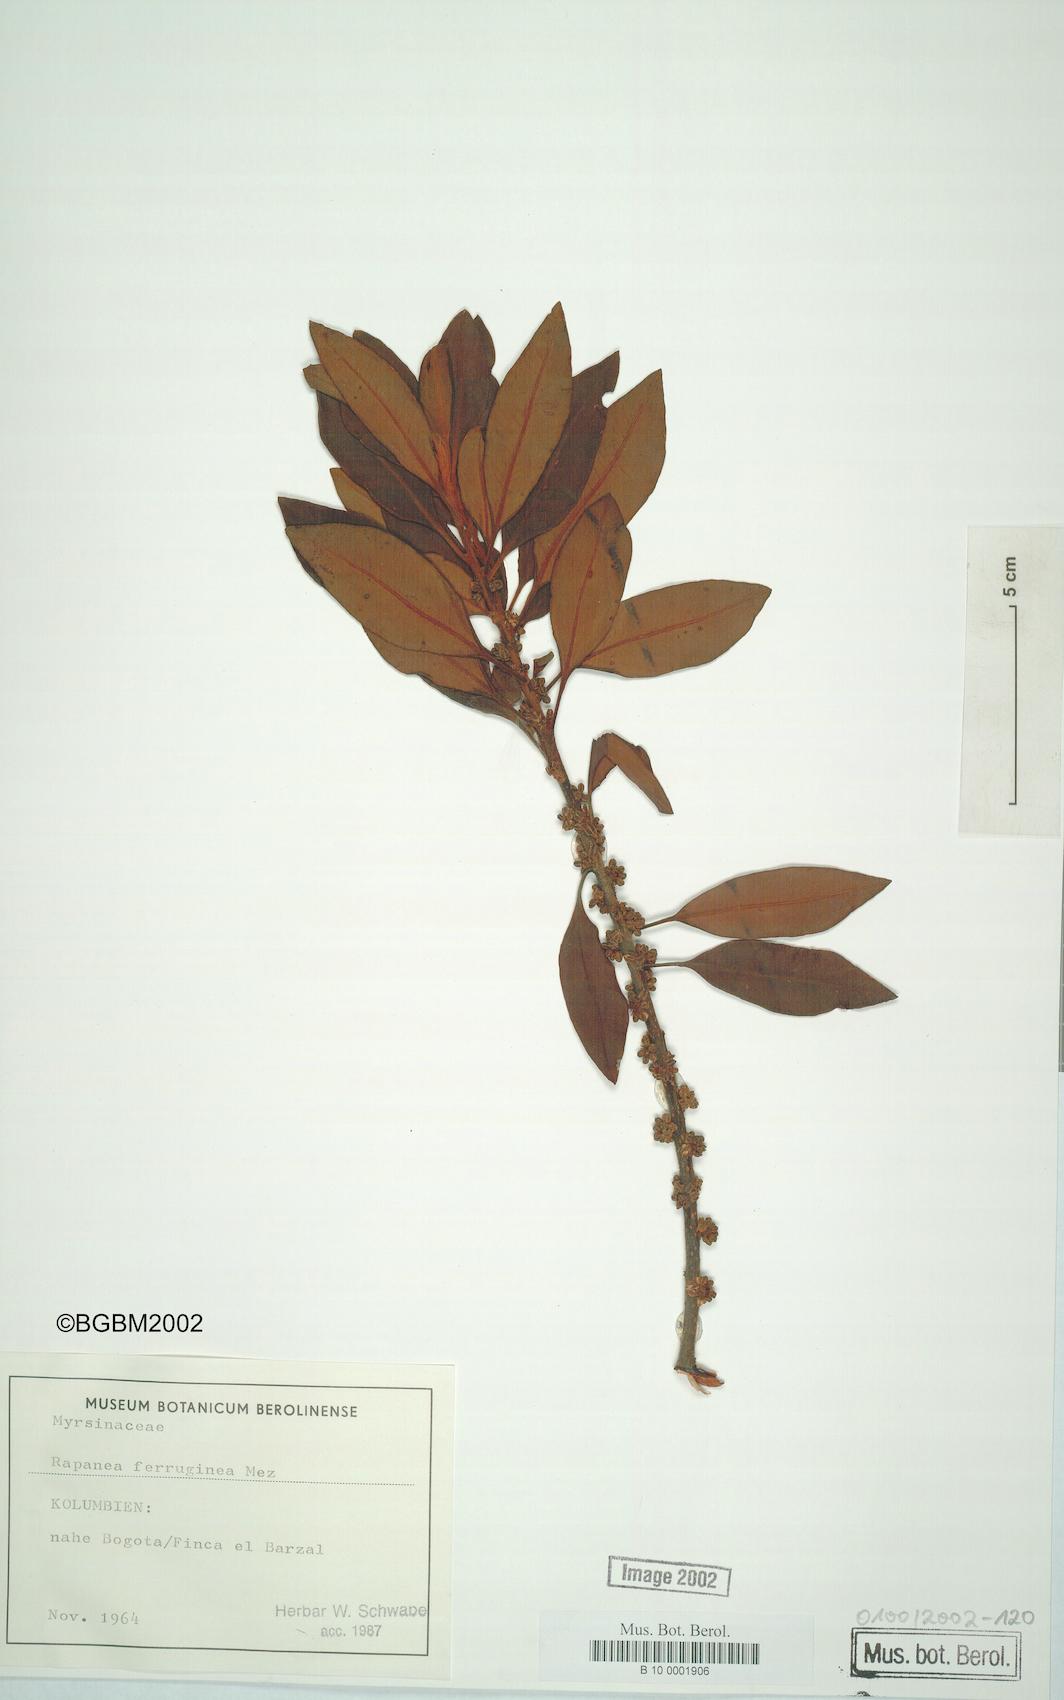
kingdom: Plantae
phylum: Tracheophyta
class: Magnoliopsida
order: Ericales
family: Primulaceae
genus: Myrsine
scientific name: Myrsine coriacea
